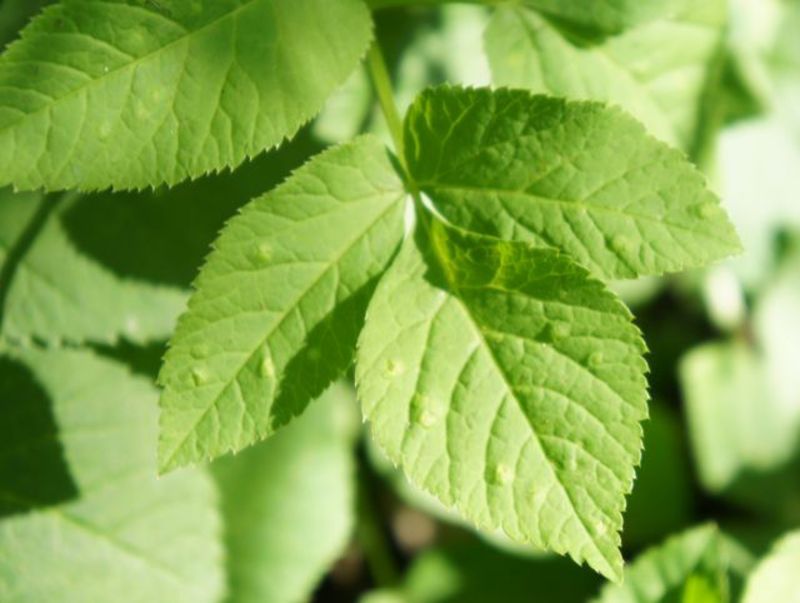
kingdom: Animalia
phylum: Arthropoda
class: Insecta
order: Hemiptera
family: Triozidae
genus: Trioza
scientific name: Trioza flavipennis
